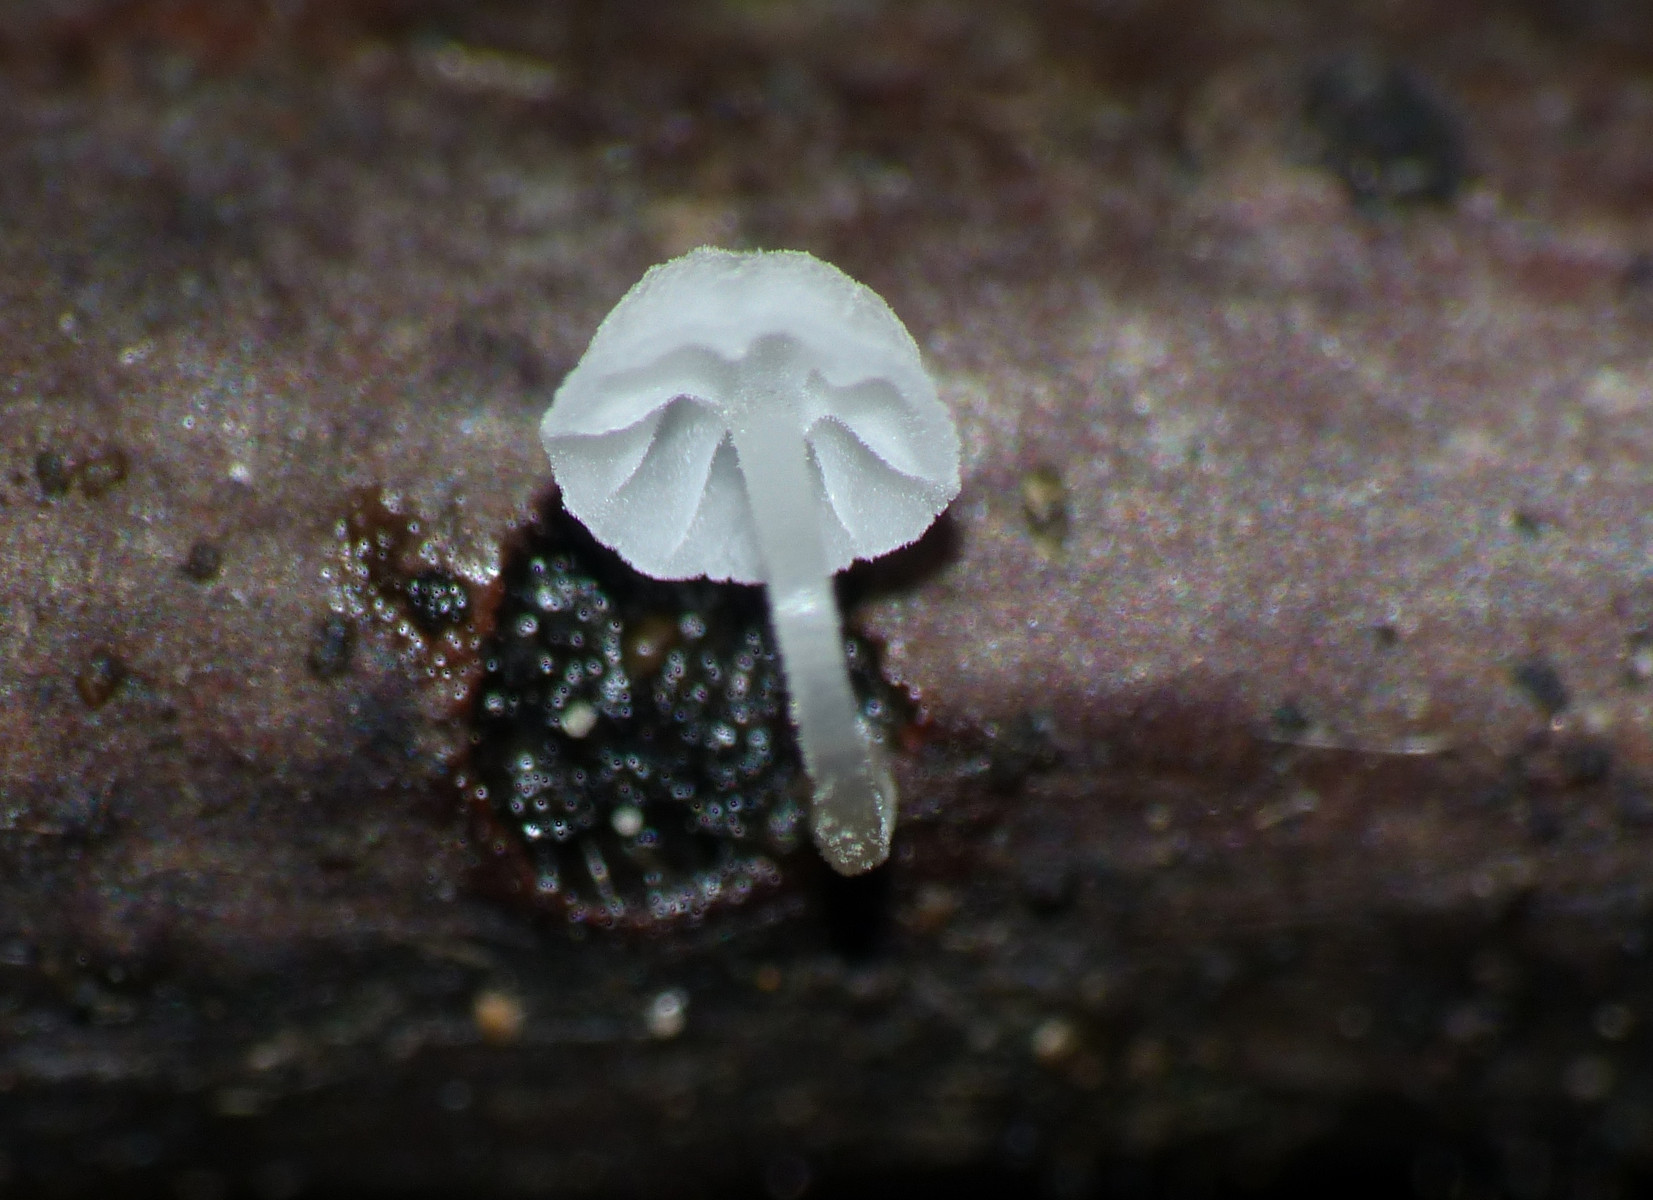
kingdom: Fungi
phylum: Basidiomycota
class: Agaricomycetes
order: Agaricales
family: Porotheleaceae
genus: Phloeomana
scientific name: Phloeomana
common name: huesvamp
